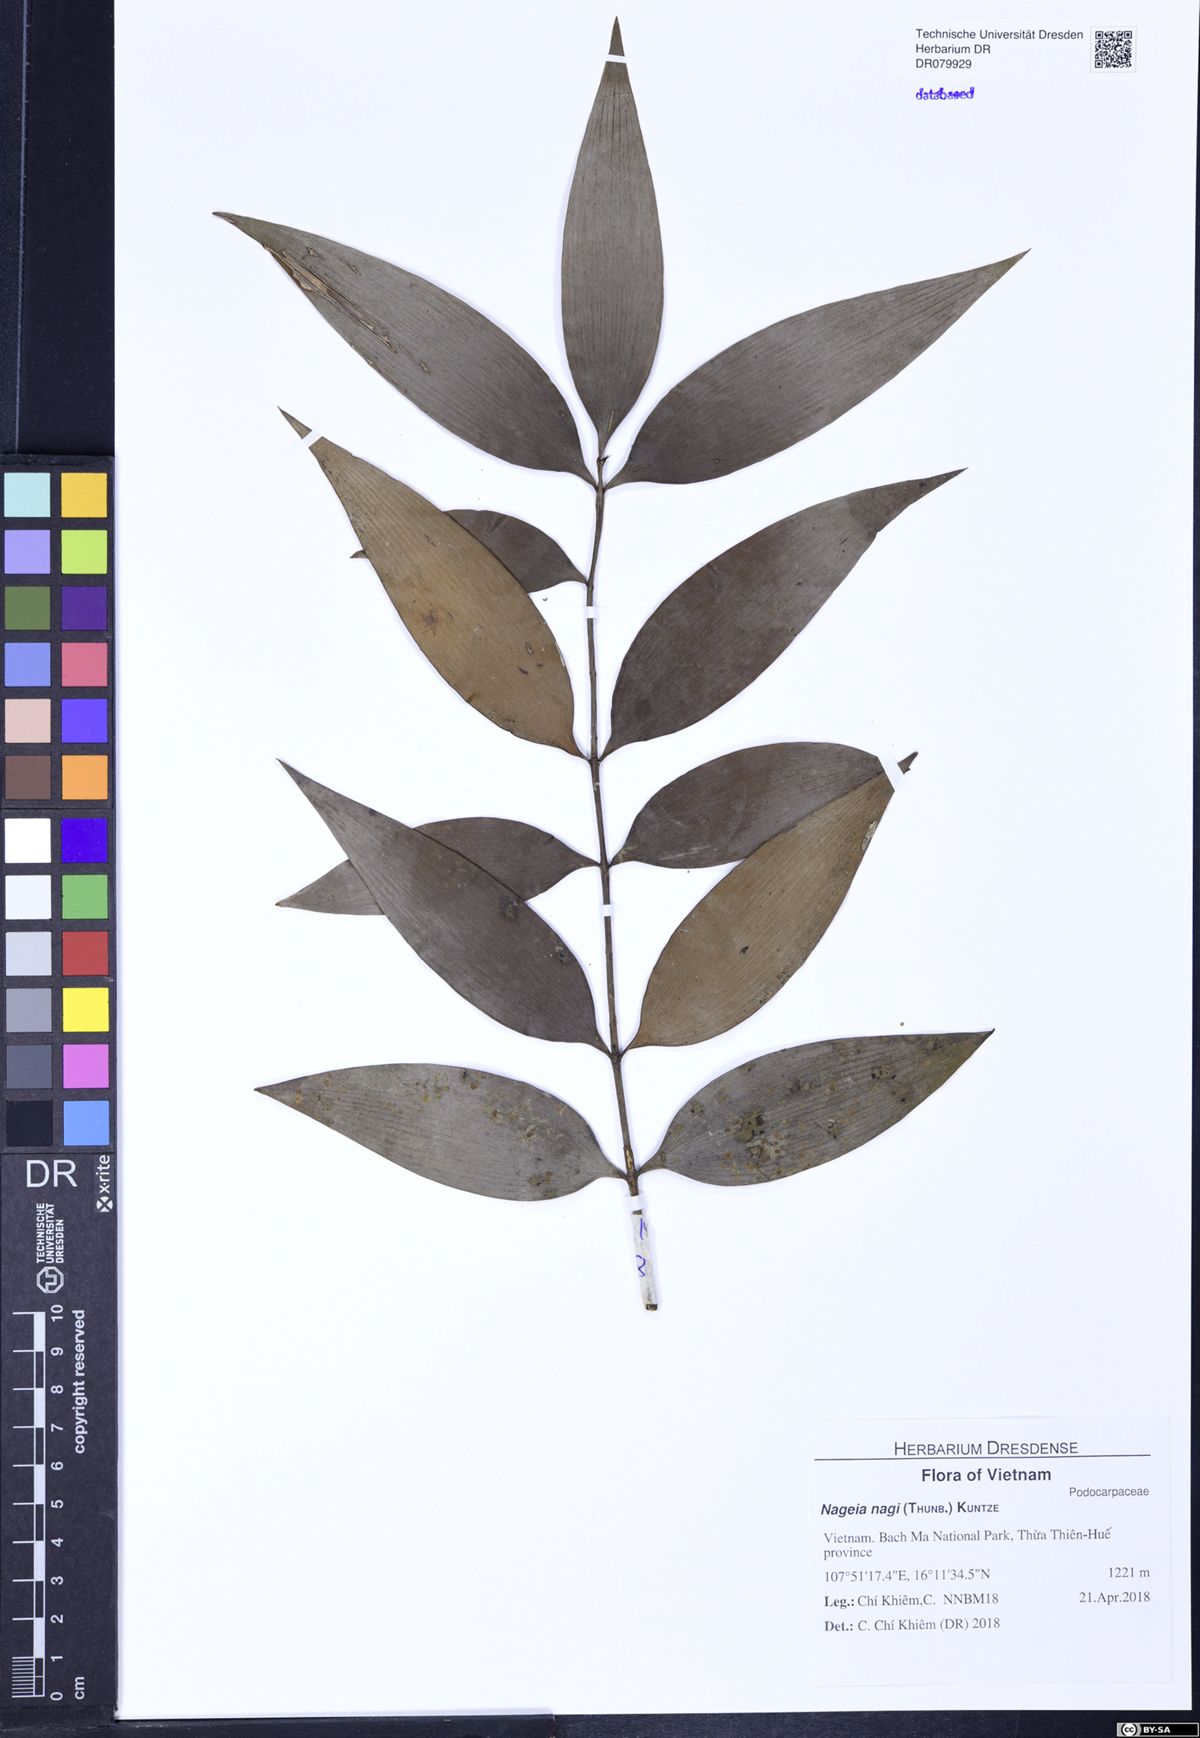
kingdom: Plantae
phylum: Tracheophyta
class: Pinopsida
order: Pinales
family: Podocarpaceae
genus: Nageia
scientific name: Nageia nagi
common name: Kaphal
